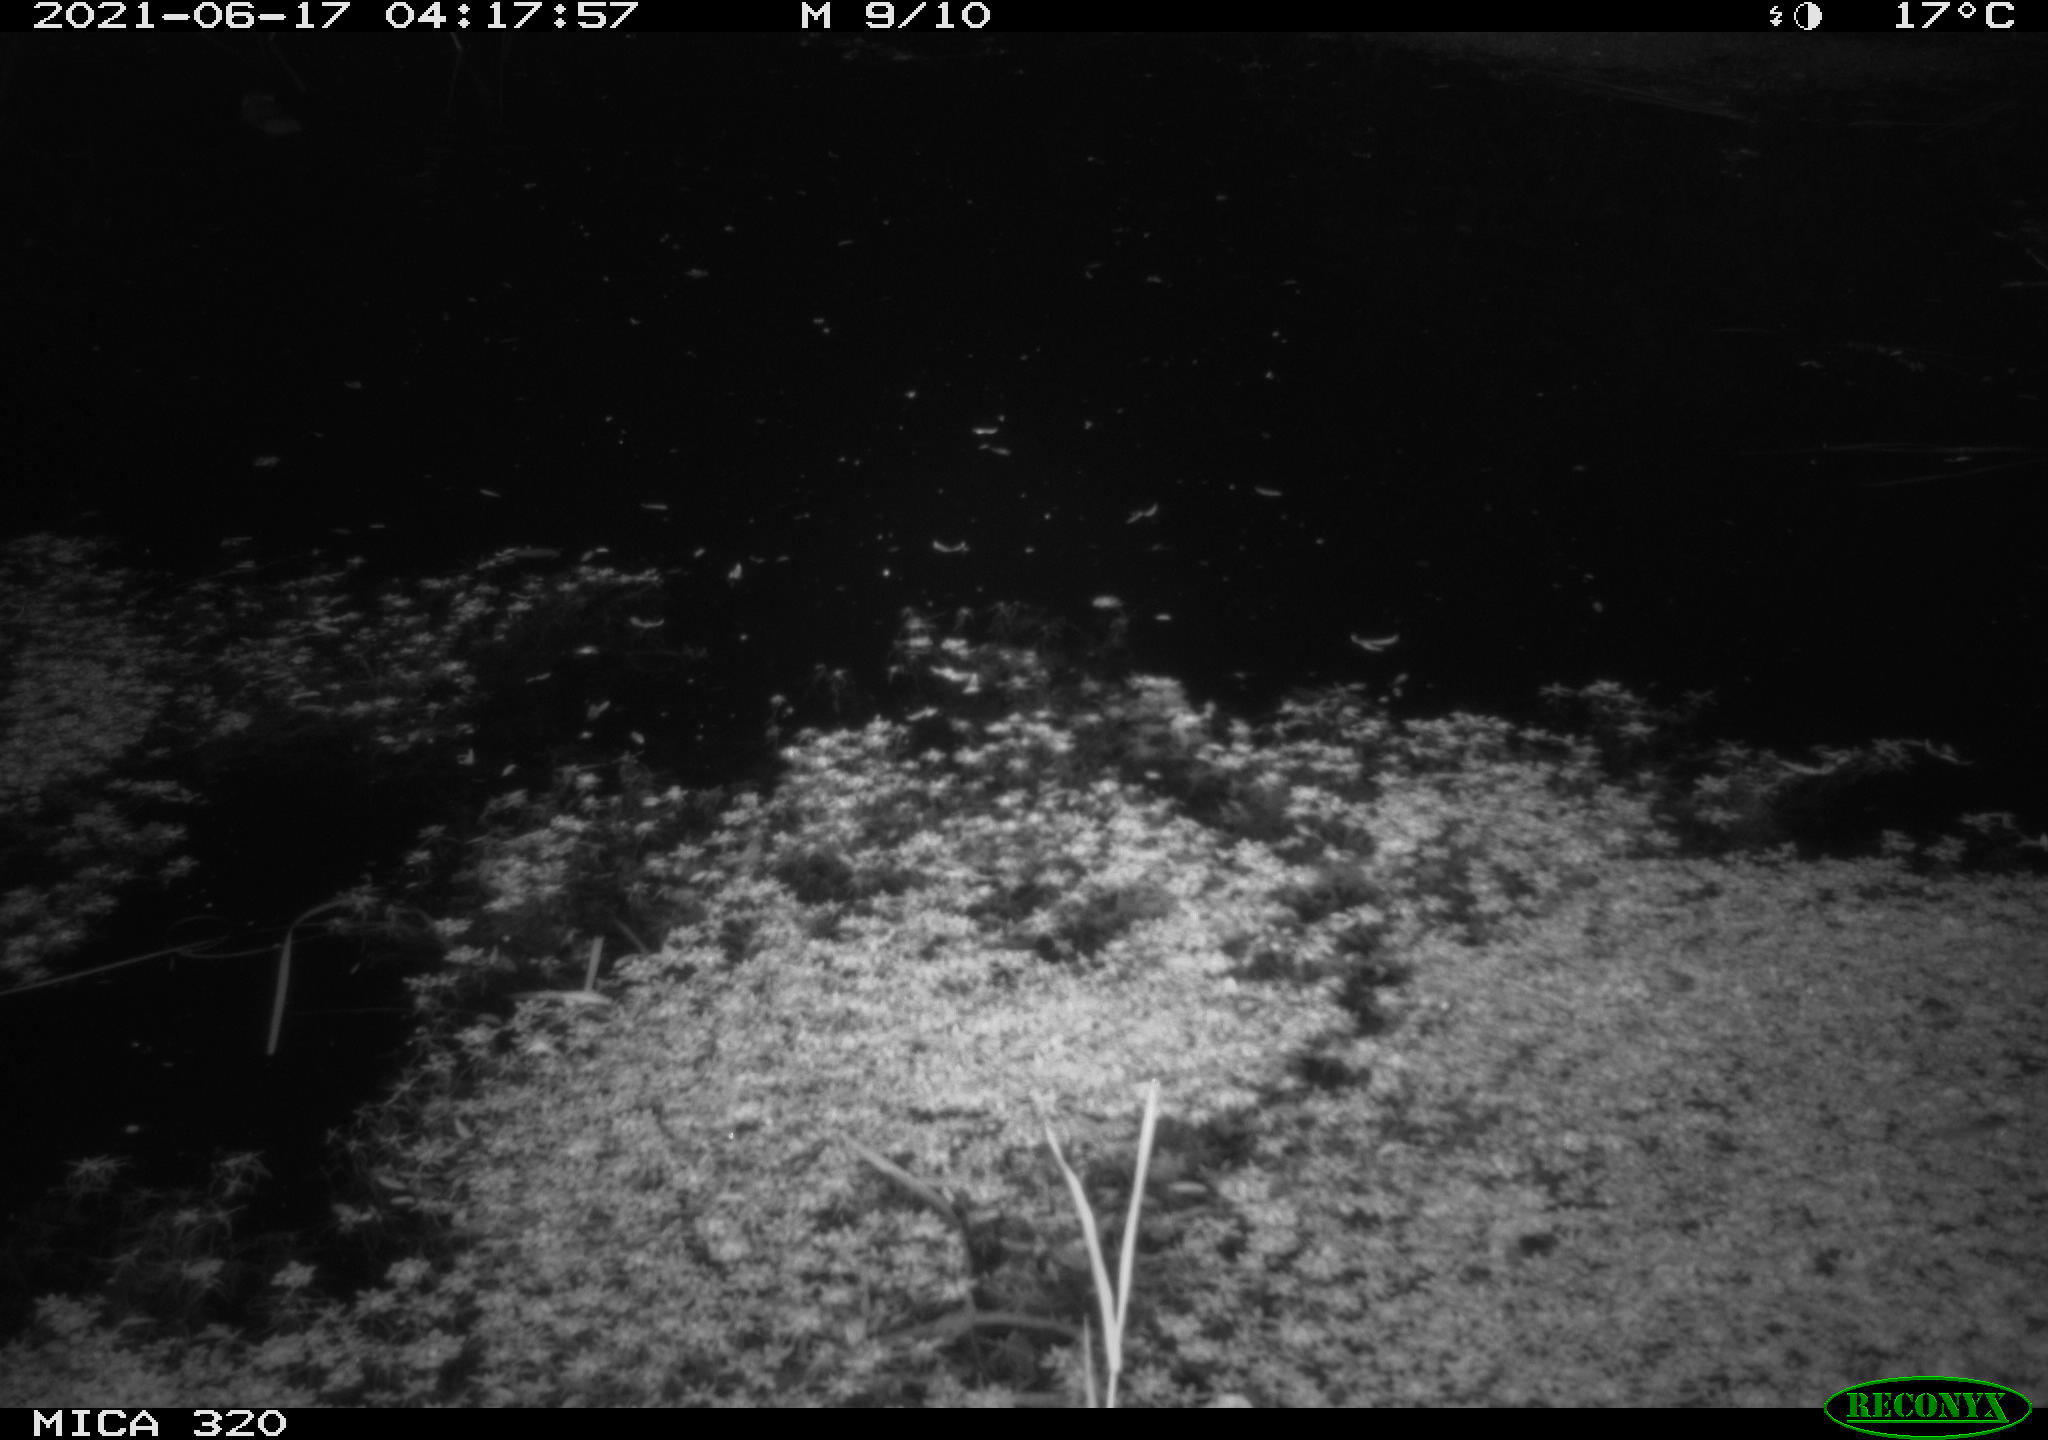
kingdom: Animalia
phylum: Chordata
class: Mammalia
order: Rodentia
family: Muridae
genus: Rattus
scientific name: Rattus norvegicus
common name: Brown rat
